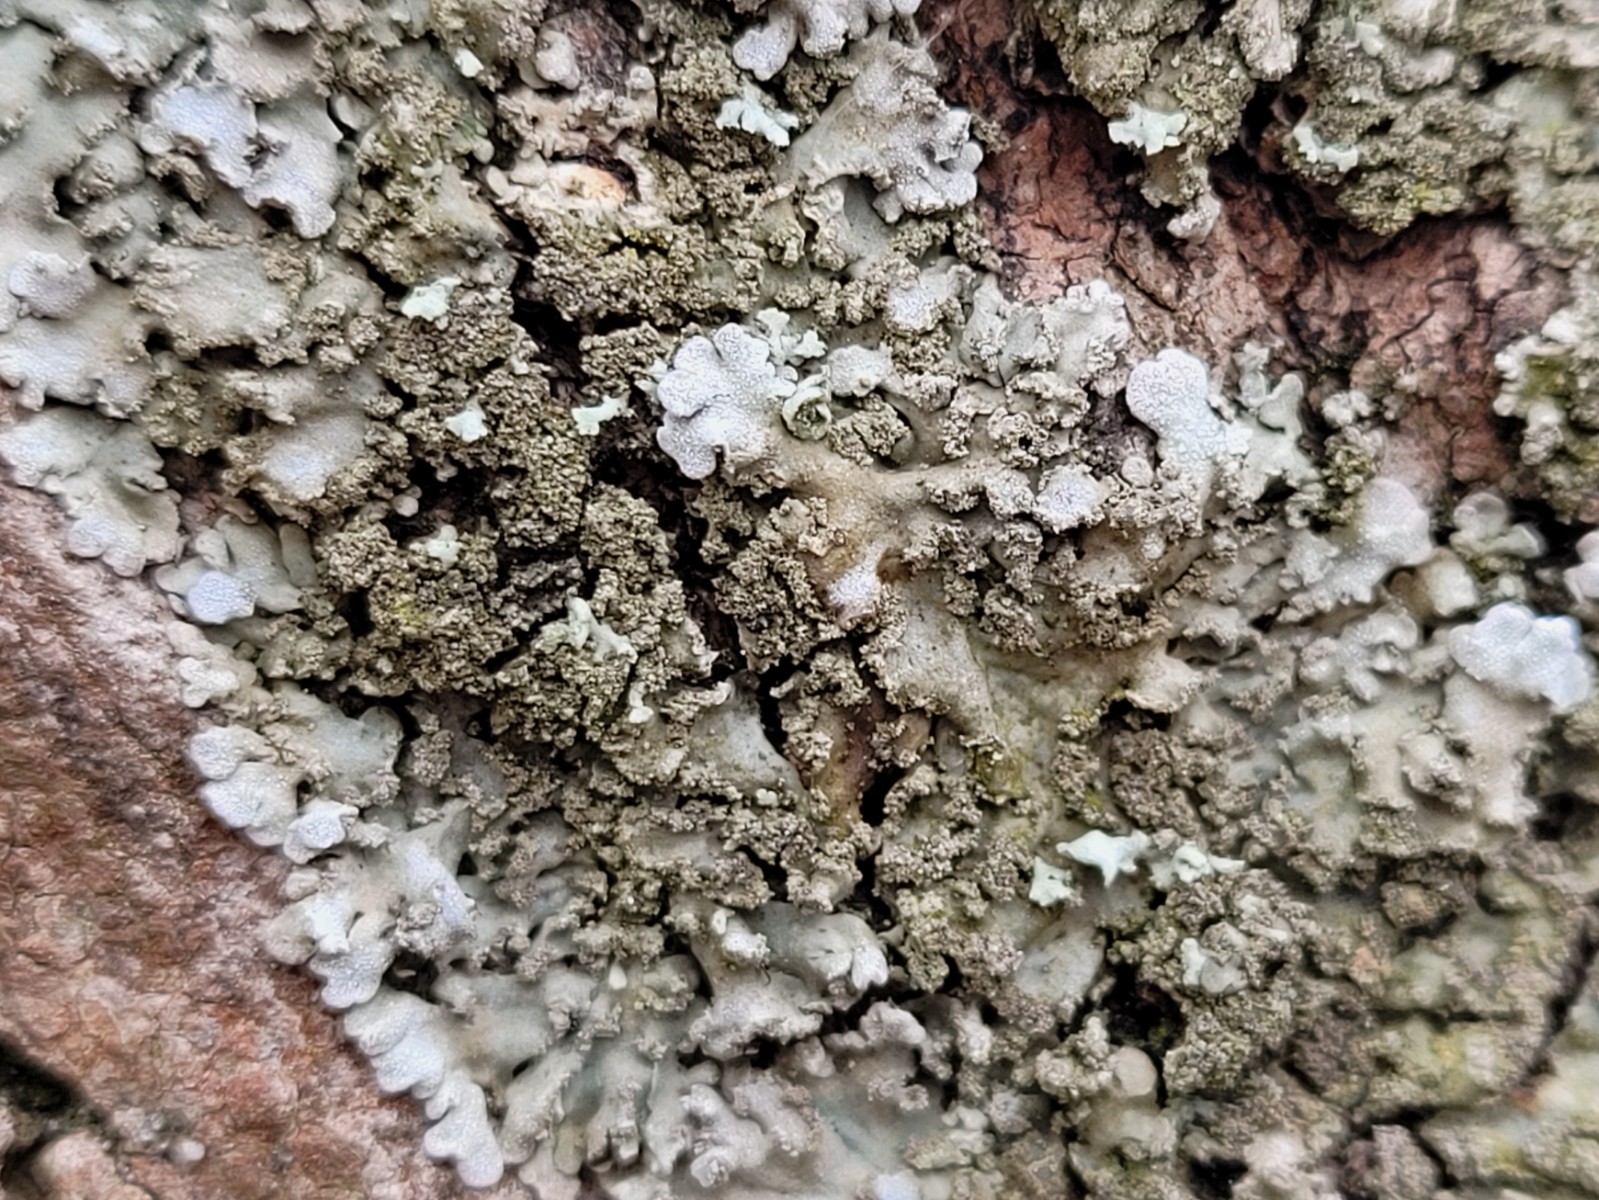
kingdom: Fungi
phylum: Ascomycota
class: Lecanoromycetes
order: Caliciales
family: Physciaceae
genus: Physconia
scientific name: Physconia
